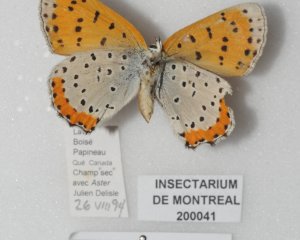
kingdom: Animalia
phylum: Arthropoda
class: Insecta
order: Lepidoptera
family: Sesiidae
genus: Sesia
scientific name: Sesia Lycaena hyllus
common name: Bronze Copper
